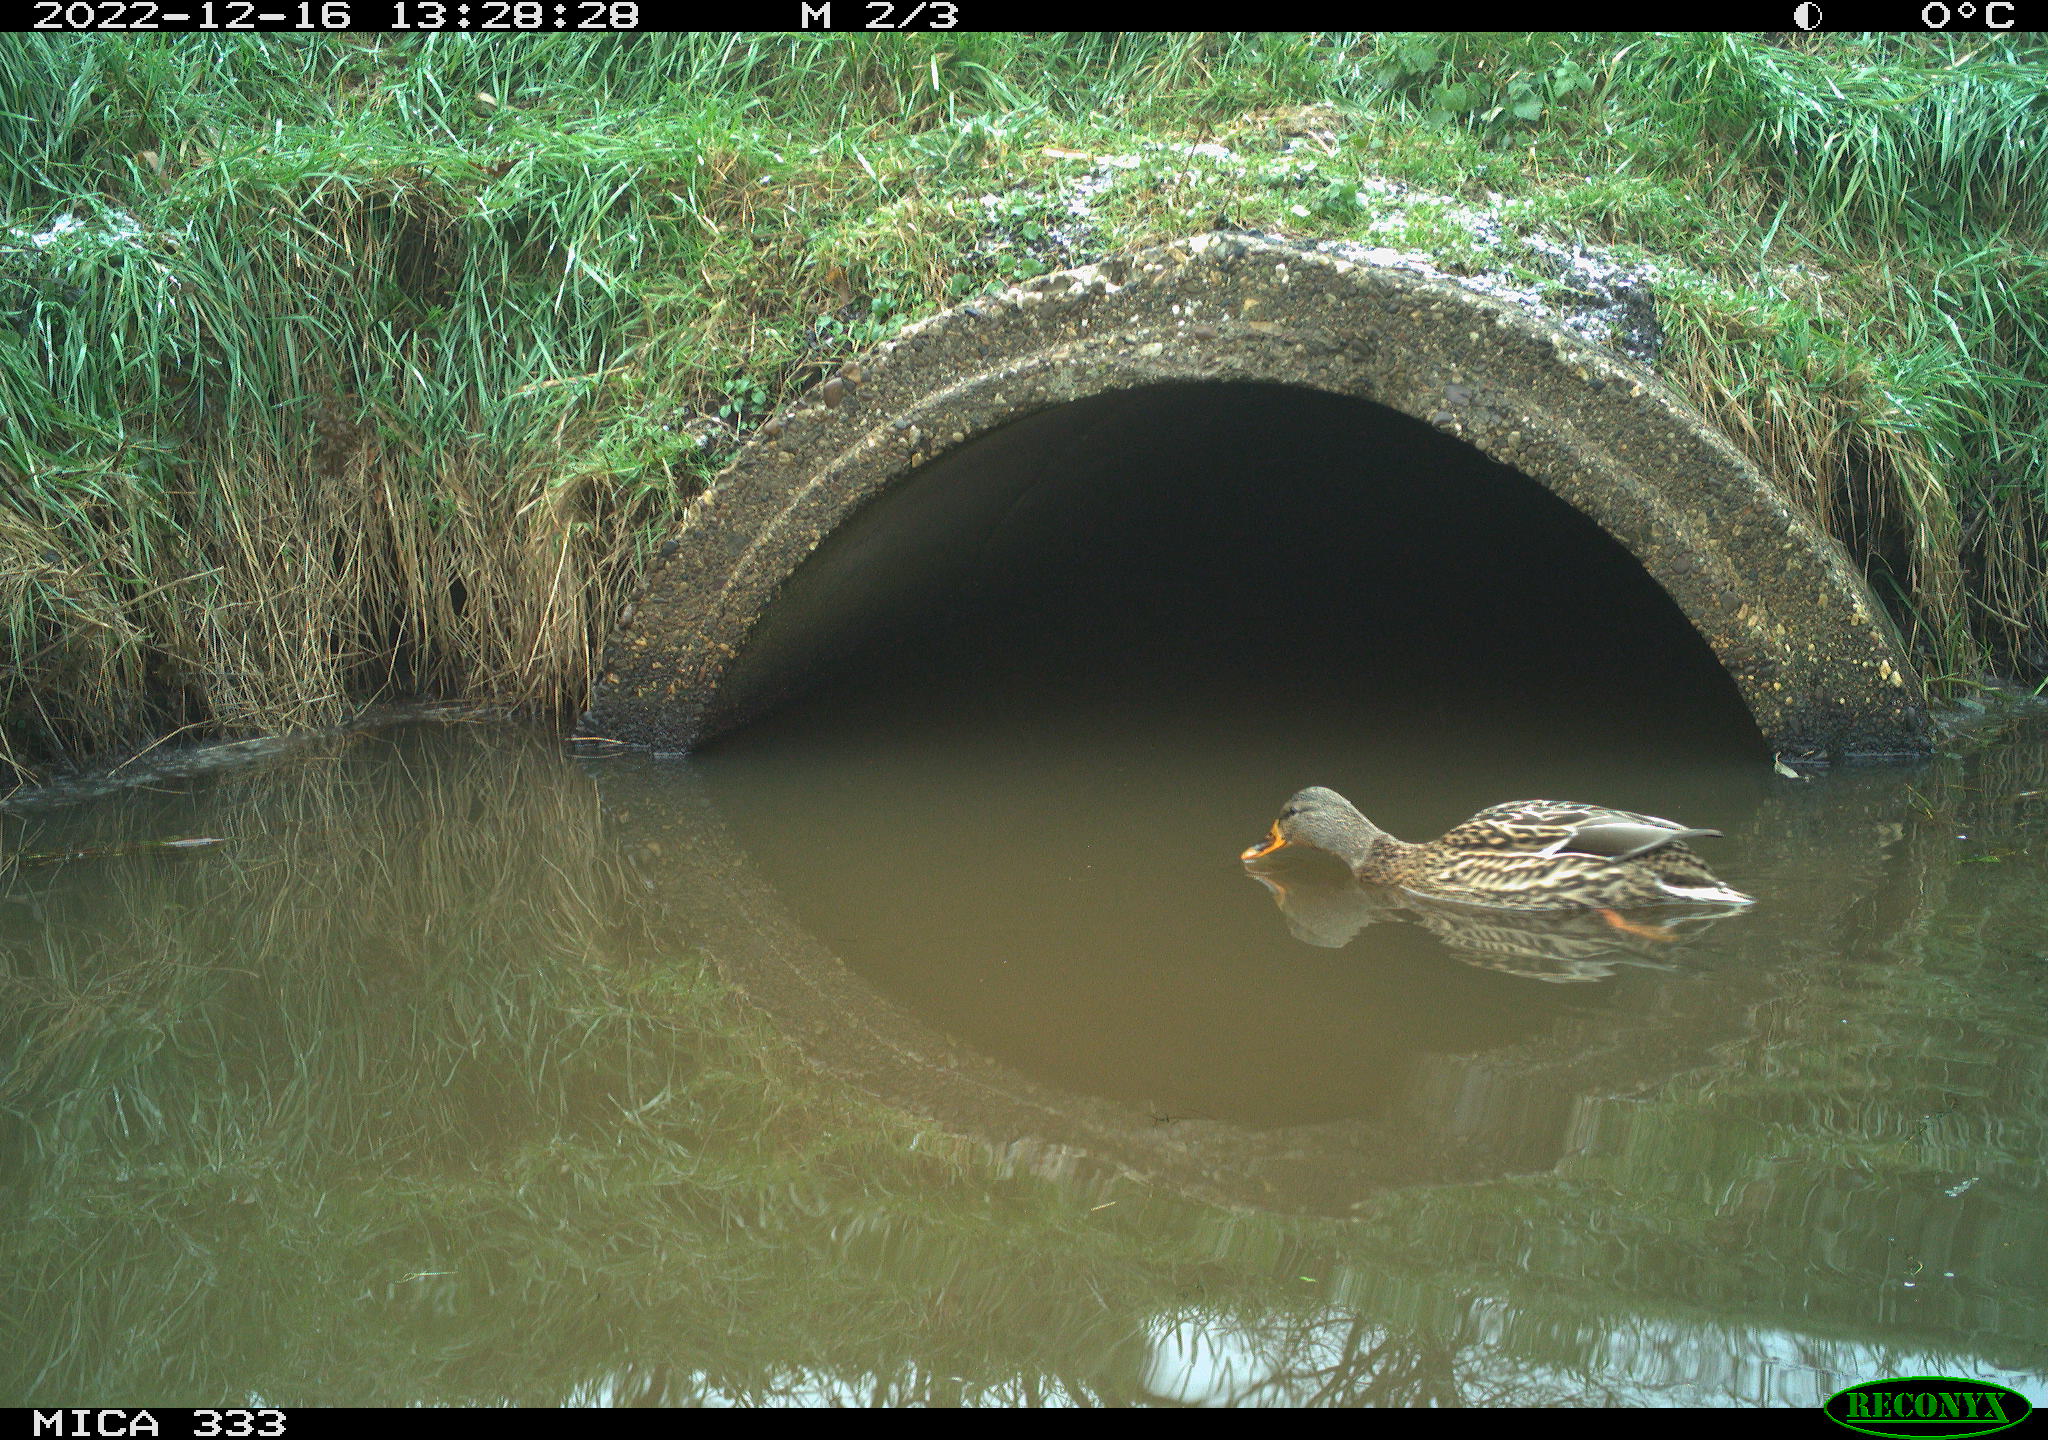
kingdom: Animalia
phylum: Chordata
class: Aves
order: Anseriformes
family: Anatidae
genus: Anas
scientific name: Anas
